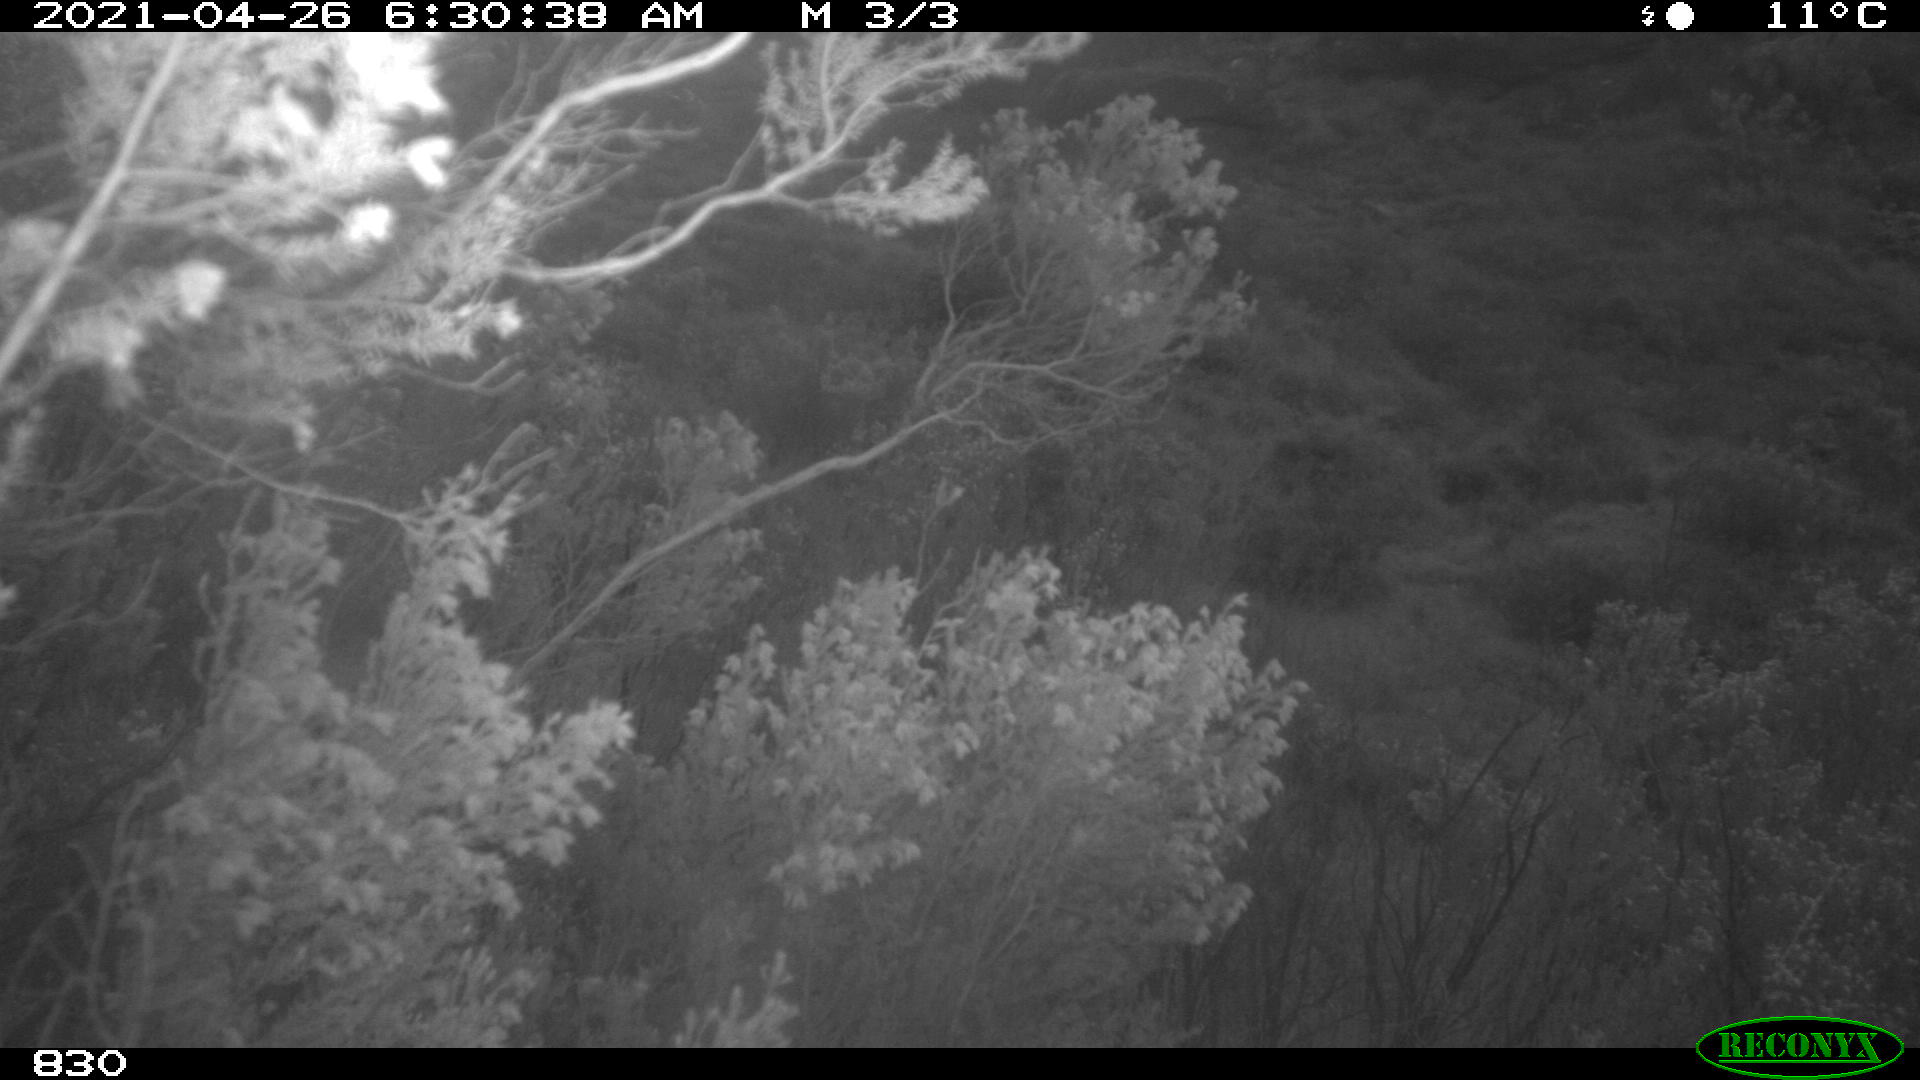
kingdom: Animalia
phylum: Chordata
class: Mammalia
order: Perissodactyla
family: Equidae
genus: Equus
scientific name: Equus caballus
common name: Horse
